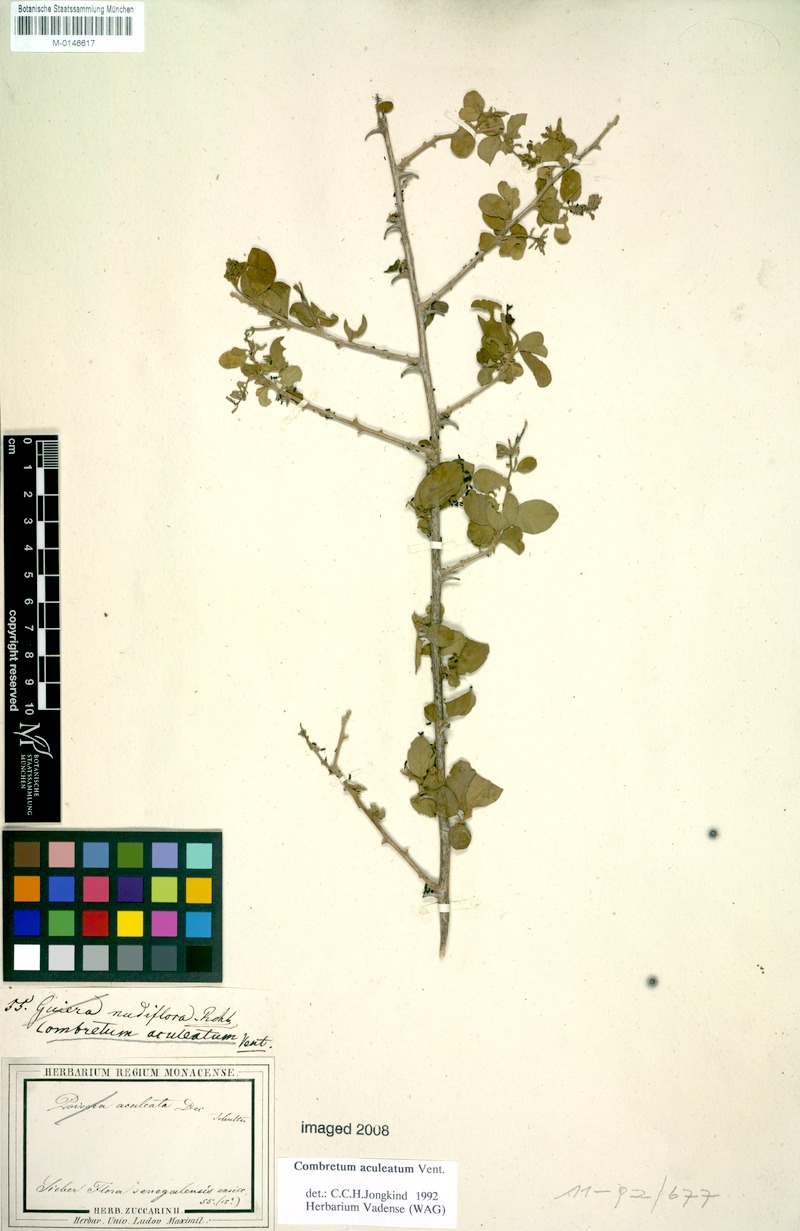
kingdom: Plantae
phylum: Tracheophyta
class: Magnoliopsida
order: Myrtales
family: Combretaceae
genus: Combretum
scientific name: Combretum aculeatum
